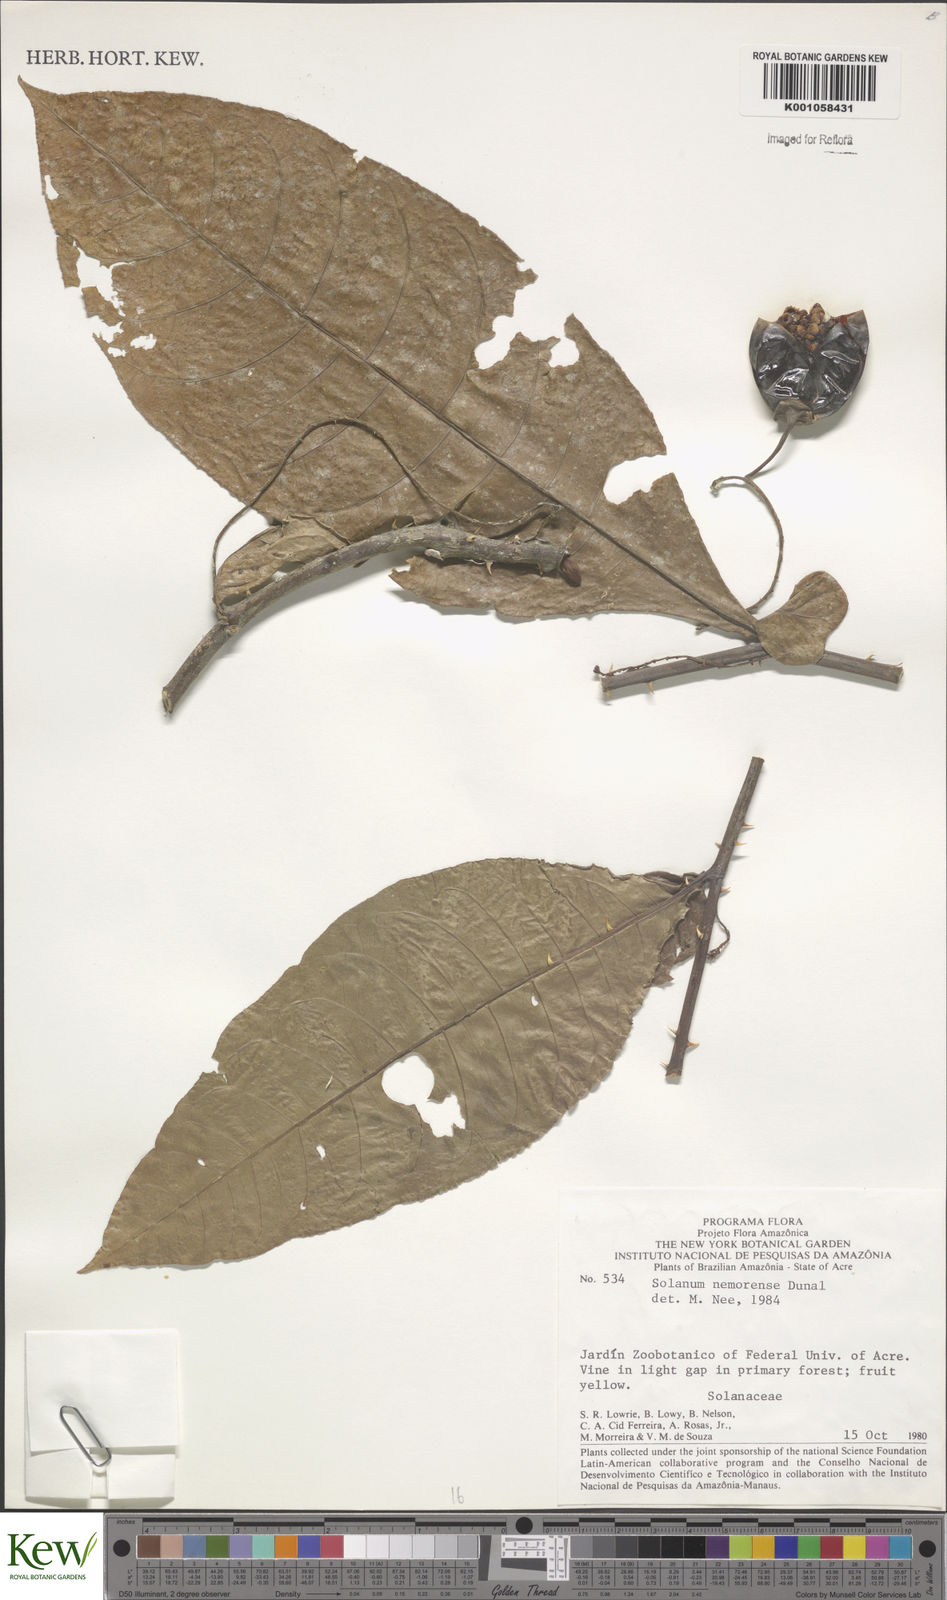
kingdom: Plantae
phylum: Tracheophyta
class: Magnoliopsida
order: Solanales
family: Solanaceae
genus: Solanum
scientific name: Solanum nemorense
